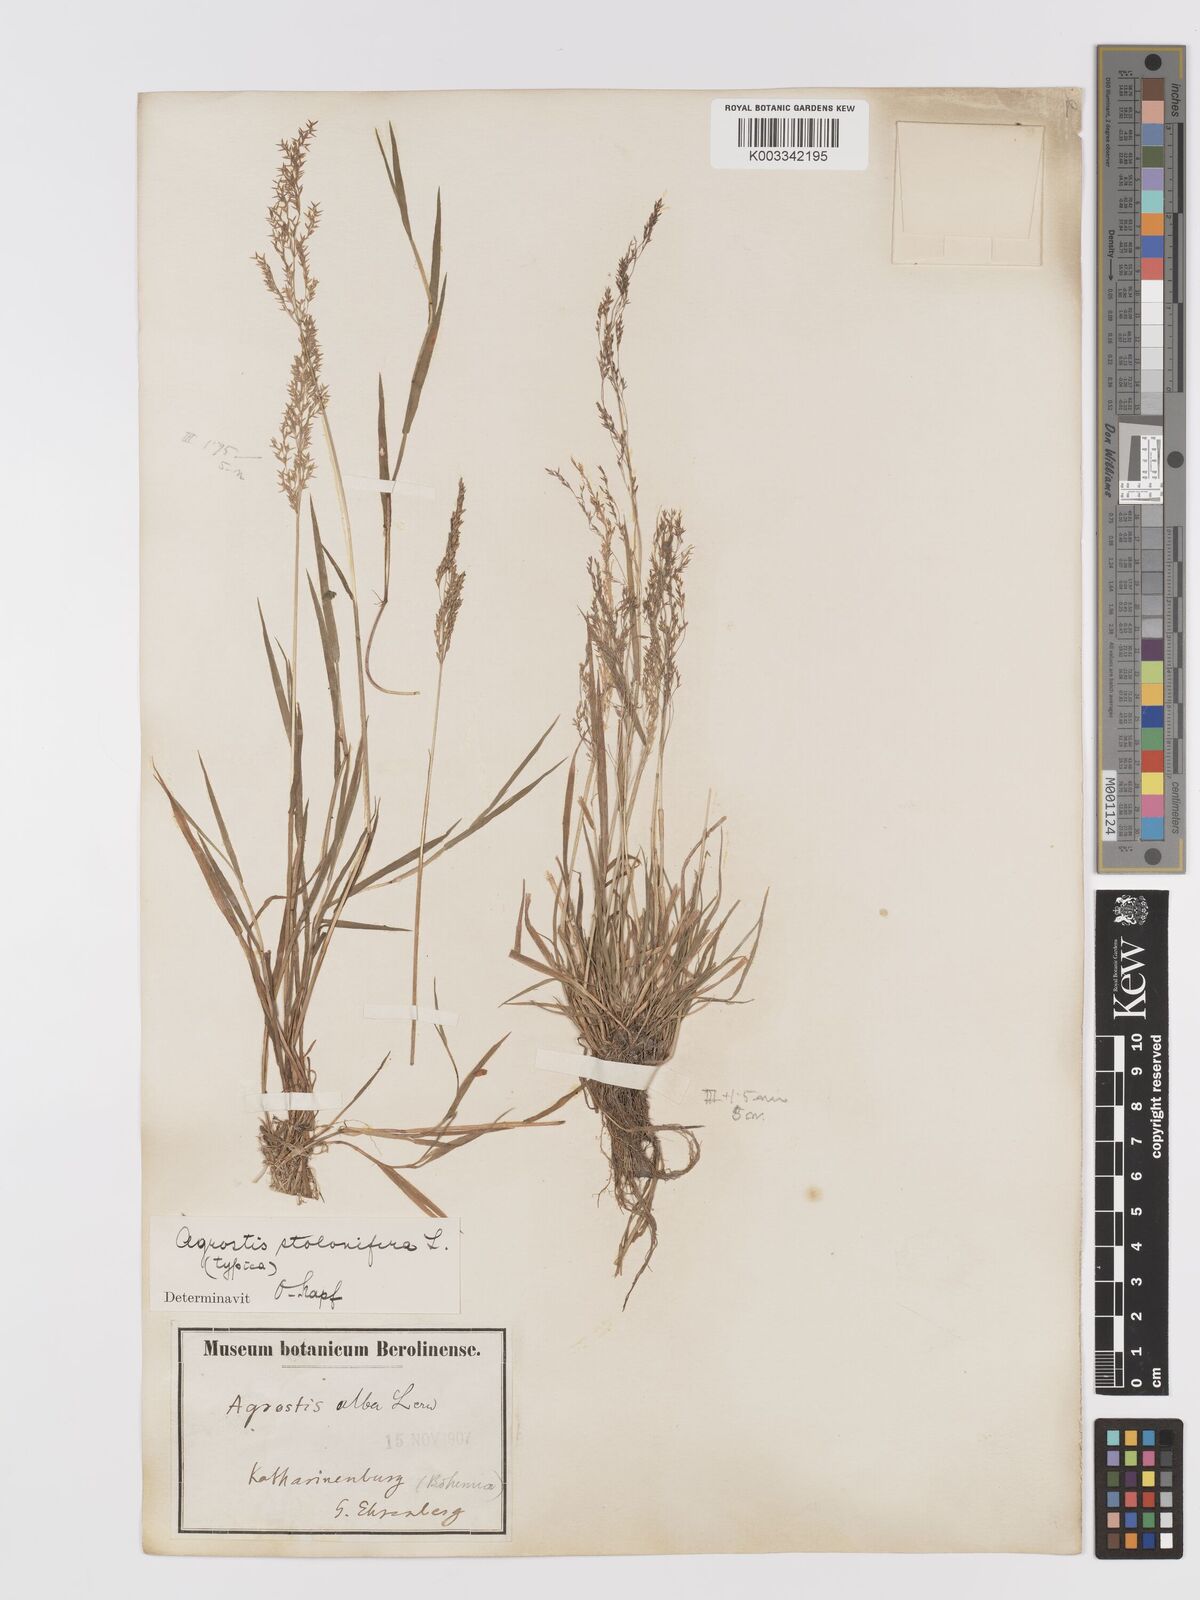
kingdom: Plantae
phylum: Tracheophyta
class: Liliopsida
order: Poales
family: Poaceae
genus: Agrostis
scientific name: Agrostis stolonifera
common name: Creeping bentgrass
